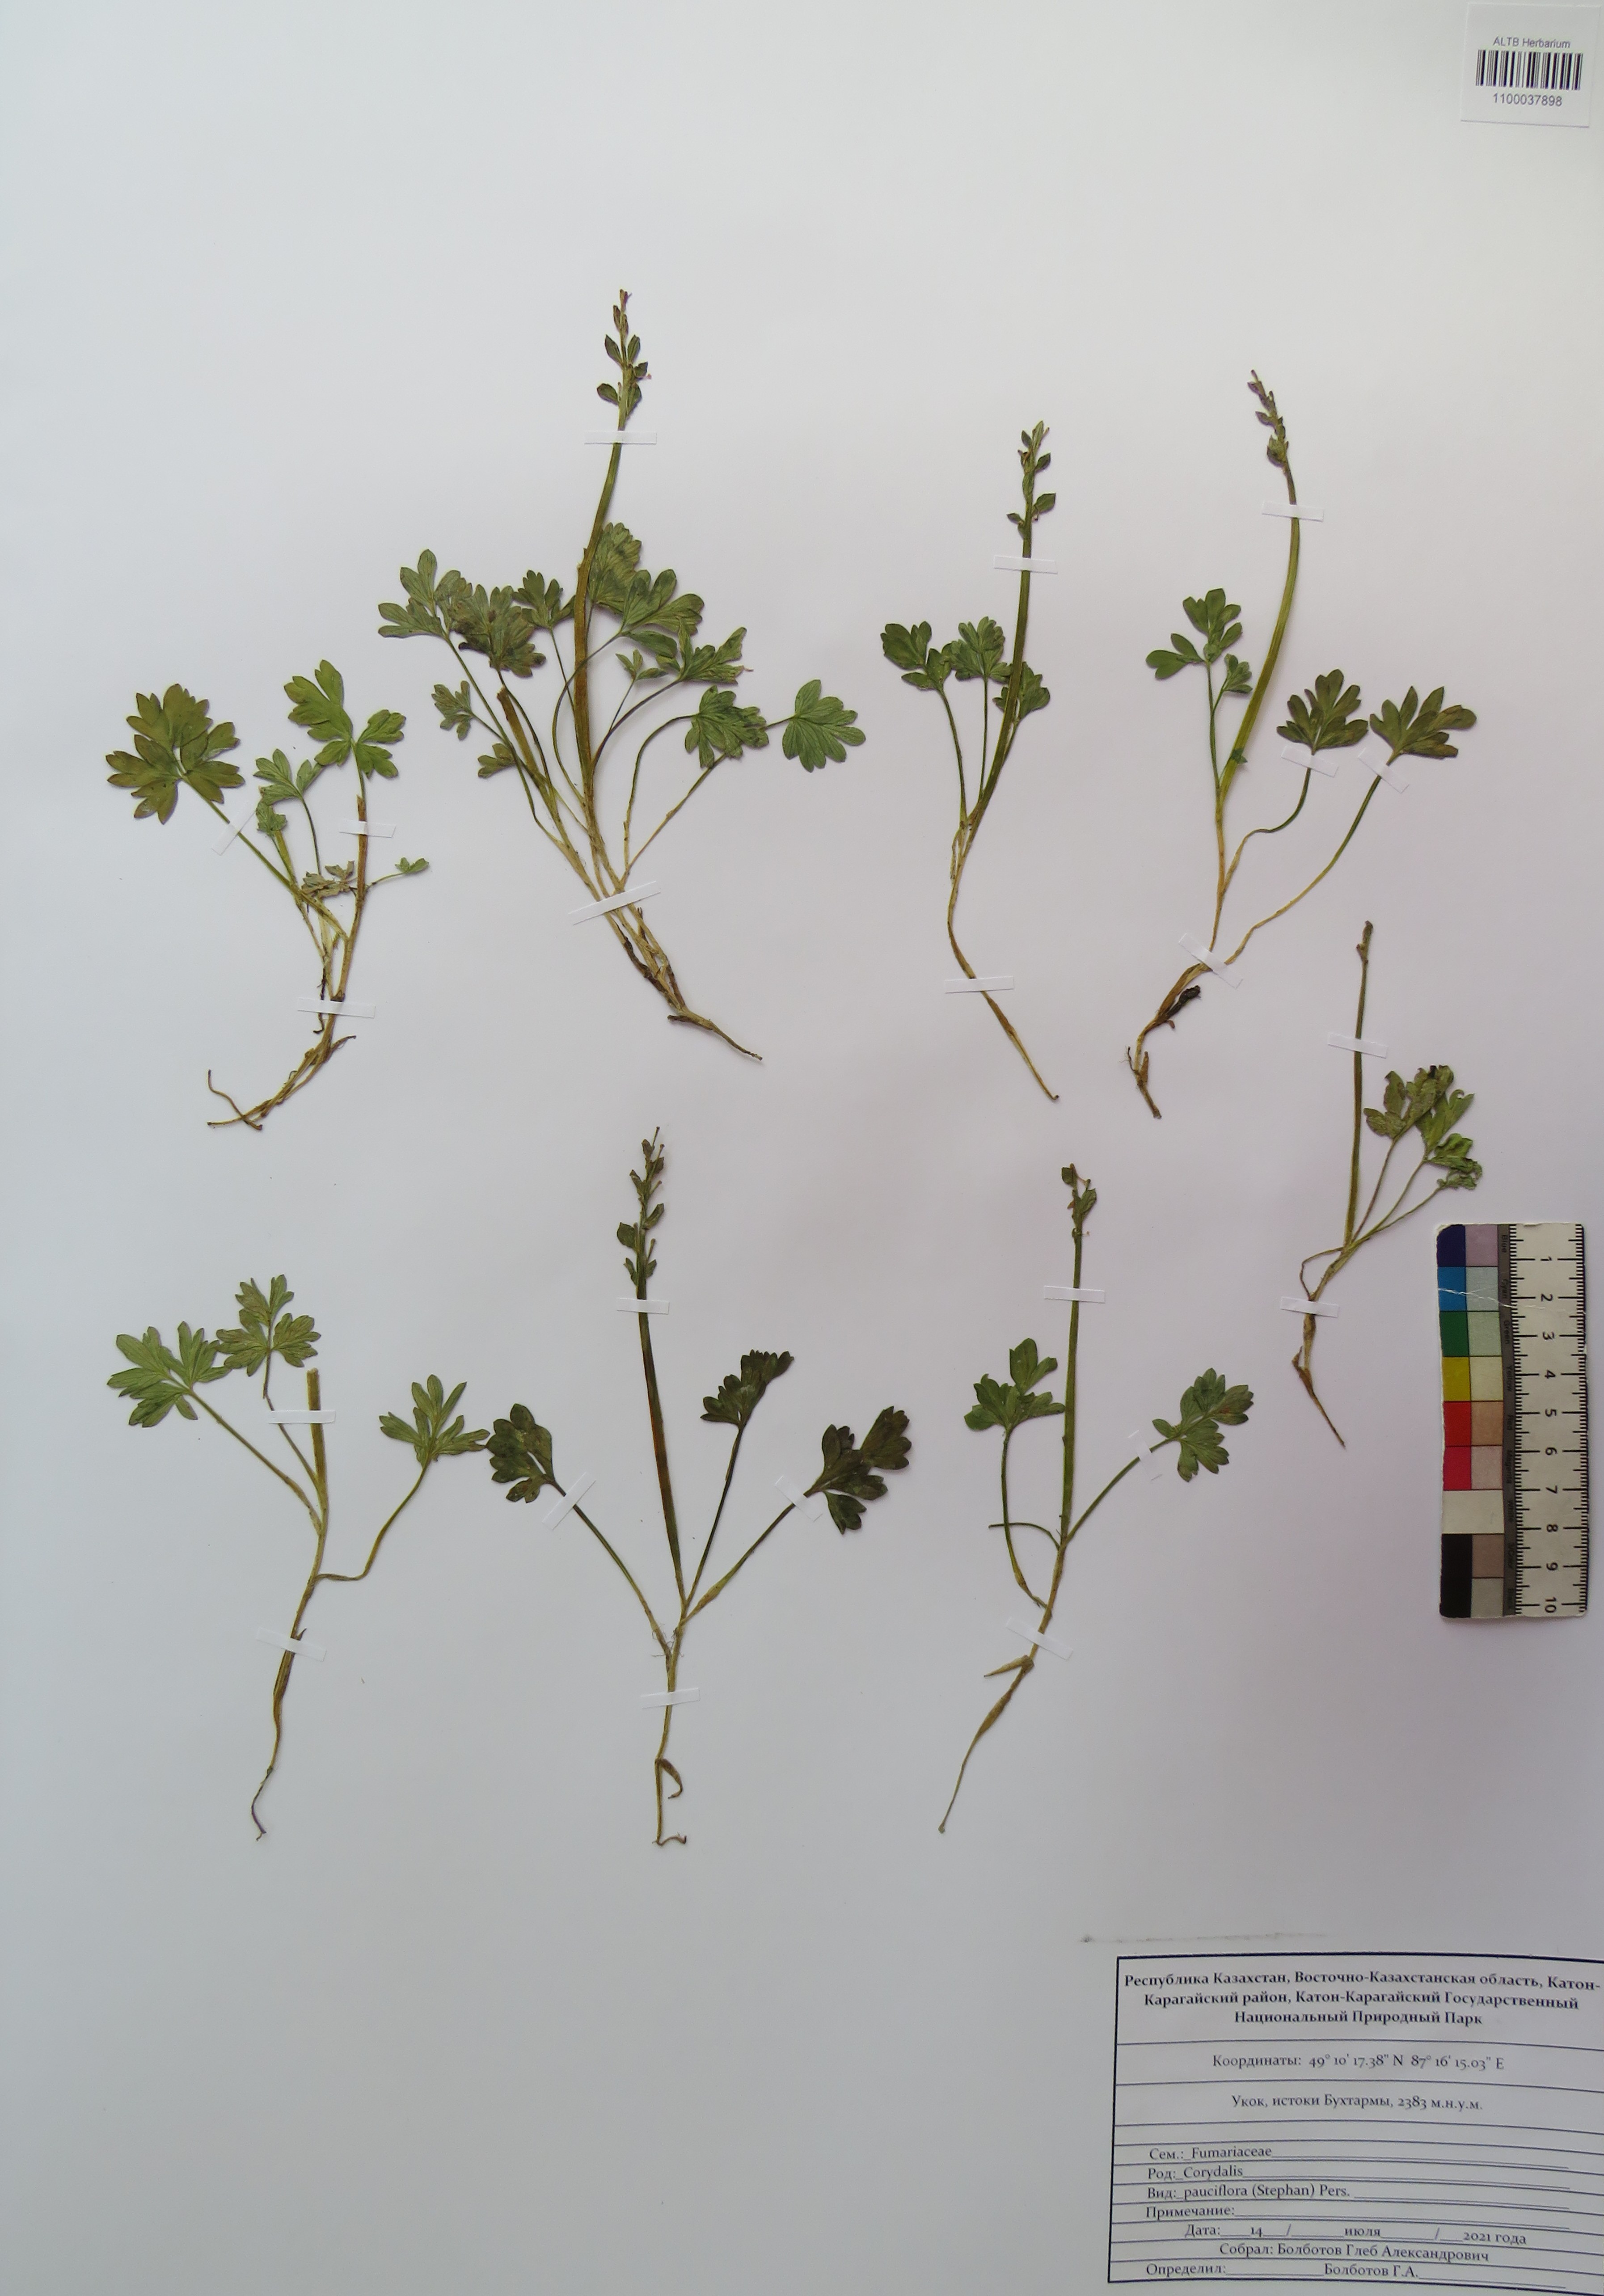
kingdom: Plantae
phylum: Tracheophyta
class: Magnoliopsida
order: Ranunculales
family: Papaveraceae
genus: Corydalis
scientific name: Corydalis pauciflora
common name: Blue corydalis
